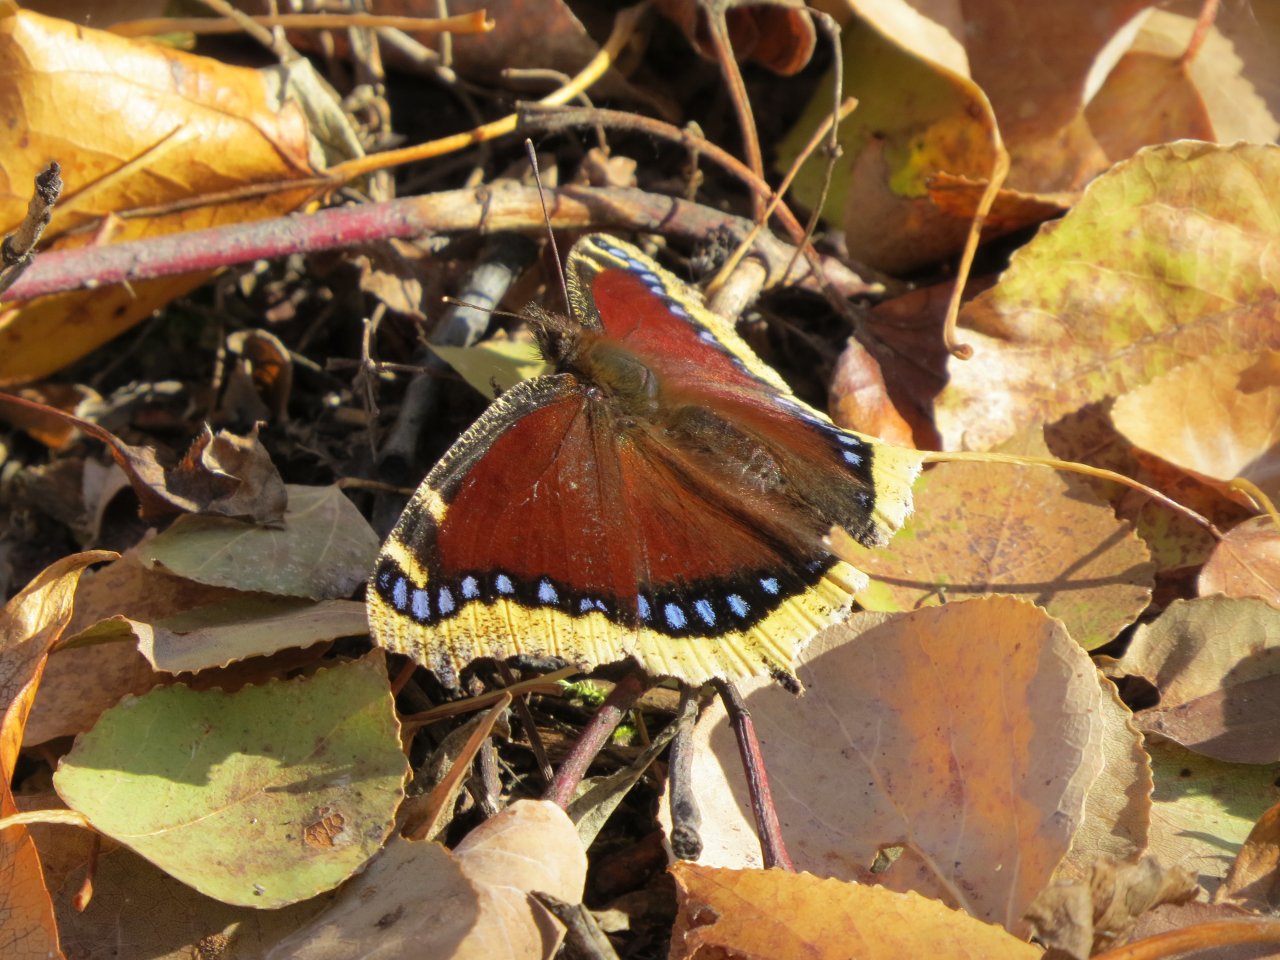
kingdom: Animalia
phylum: Arthropoda
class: Insecta
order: Lepidoptera
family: Nymphalidae
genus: Nymphalis
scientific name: Nymphalis antiopa
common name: Mourning Cloak
